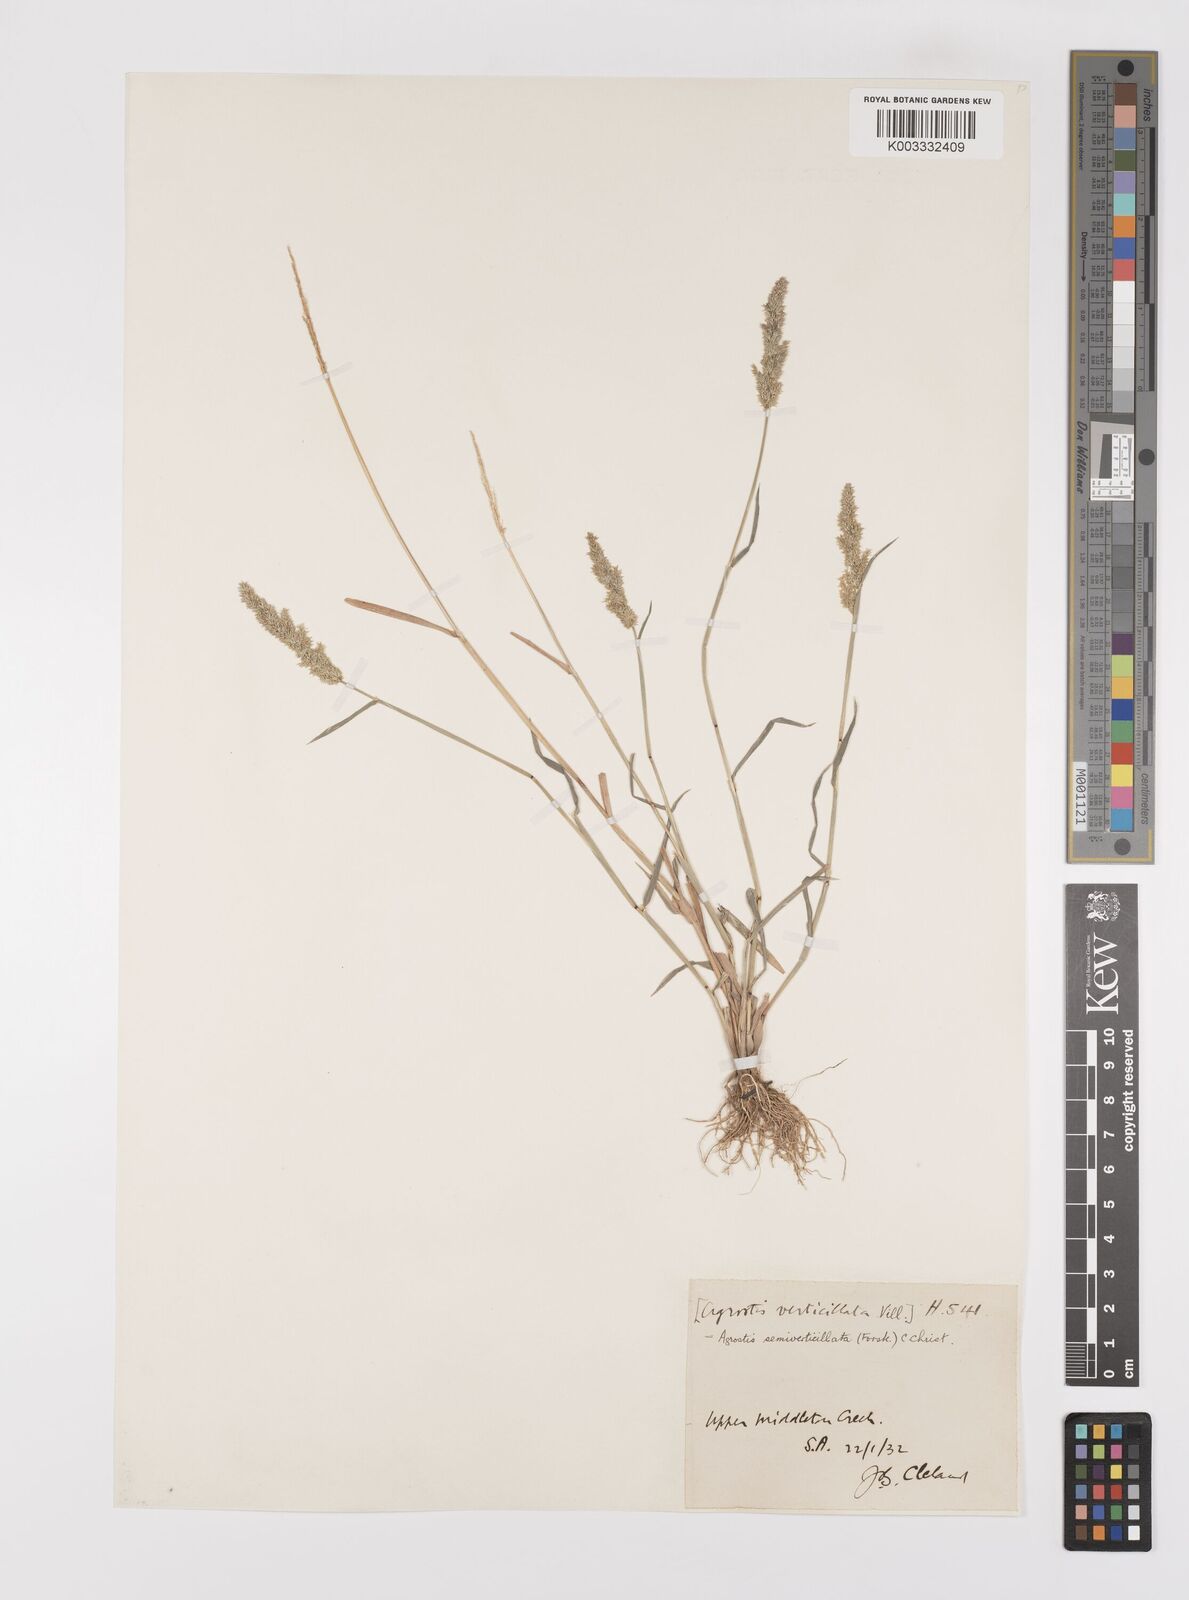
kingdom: Plantae
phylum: Tracheophyta
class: Liliopsida
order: Poales
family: Poaceae
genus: Polypogon
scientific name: Polypogon viridis
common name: Water bent
